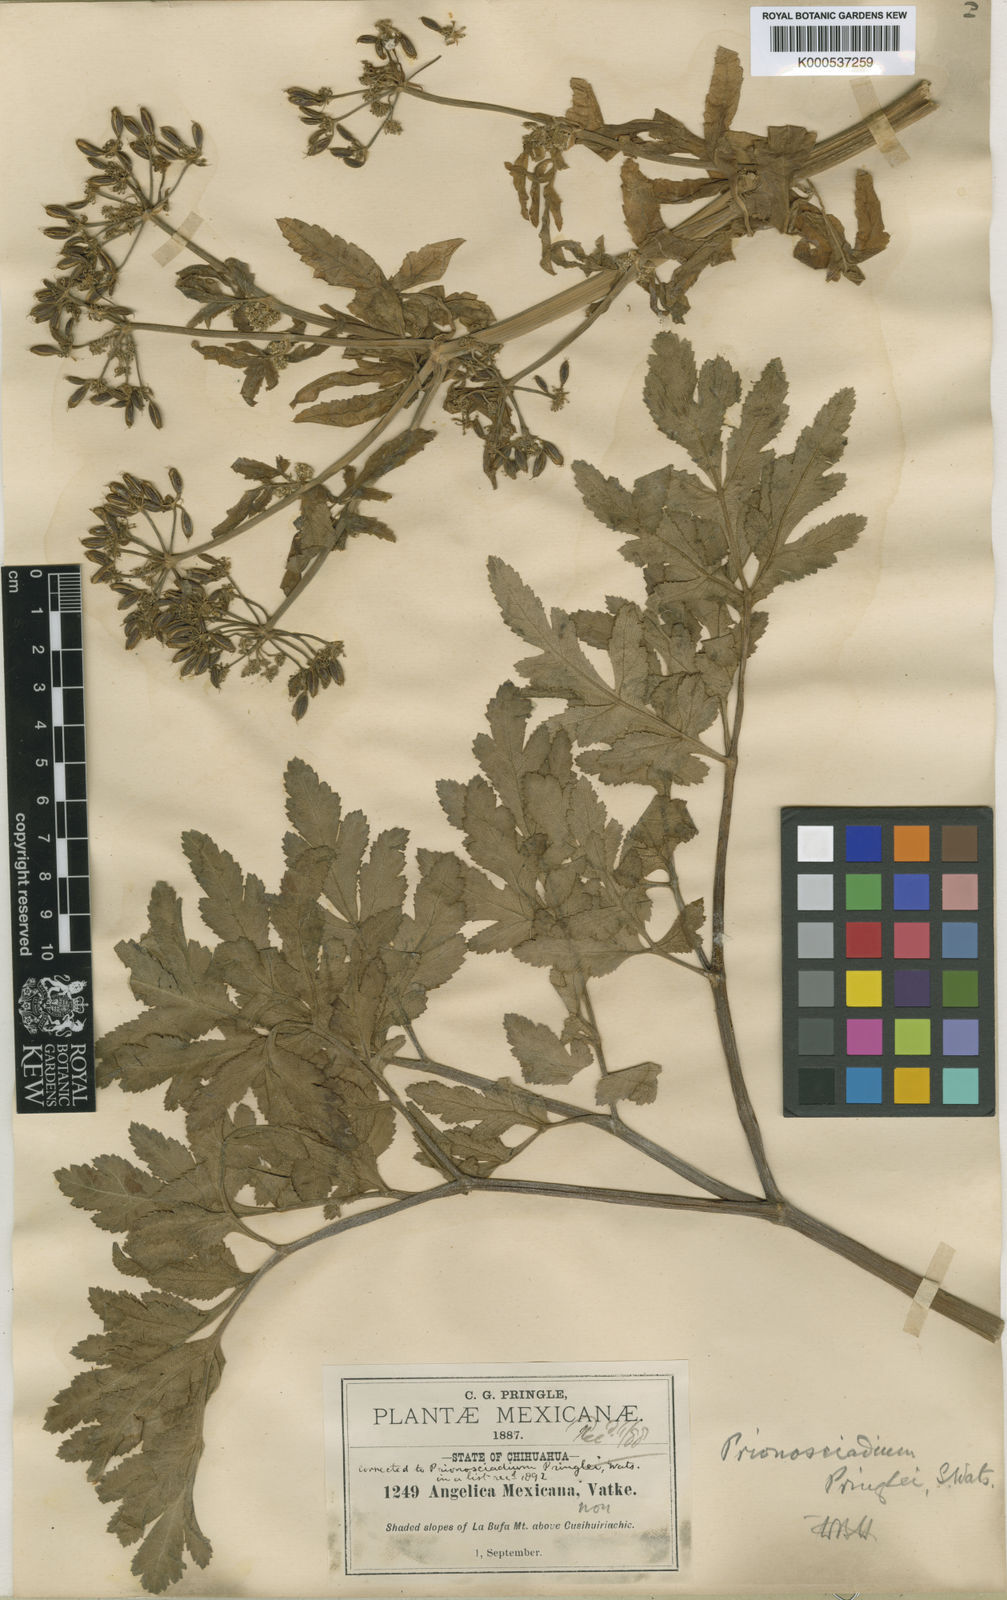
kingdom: Plantae
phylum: Tracheophyta
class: Magnoliopsida
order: Apiales
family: Apiaceae
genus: Prionosciadium
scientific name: Prionosciadium thapsoides
